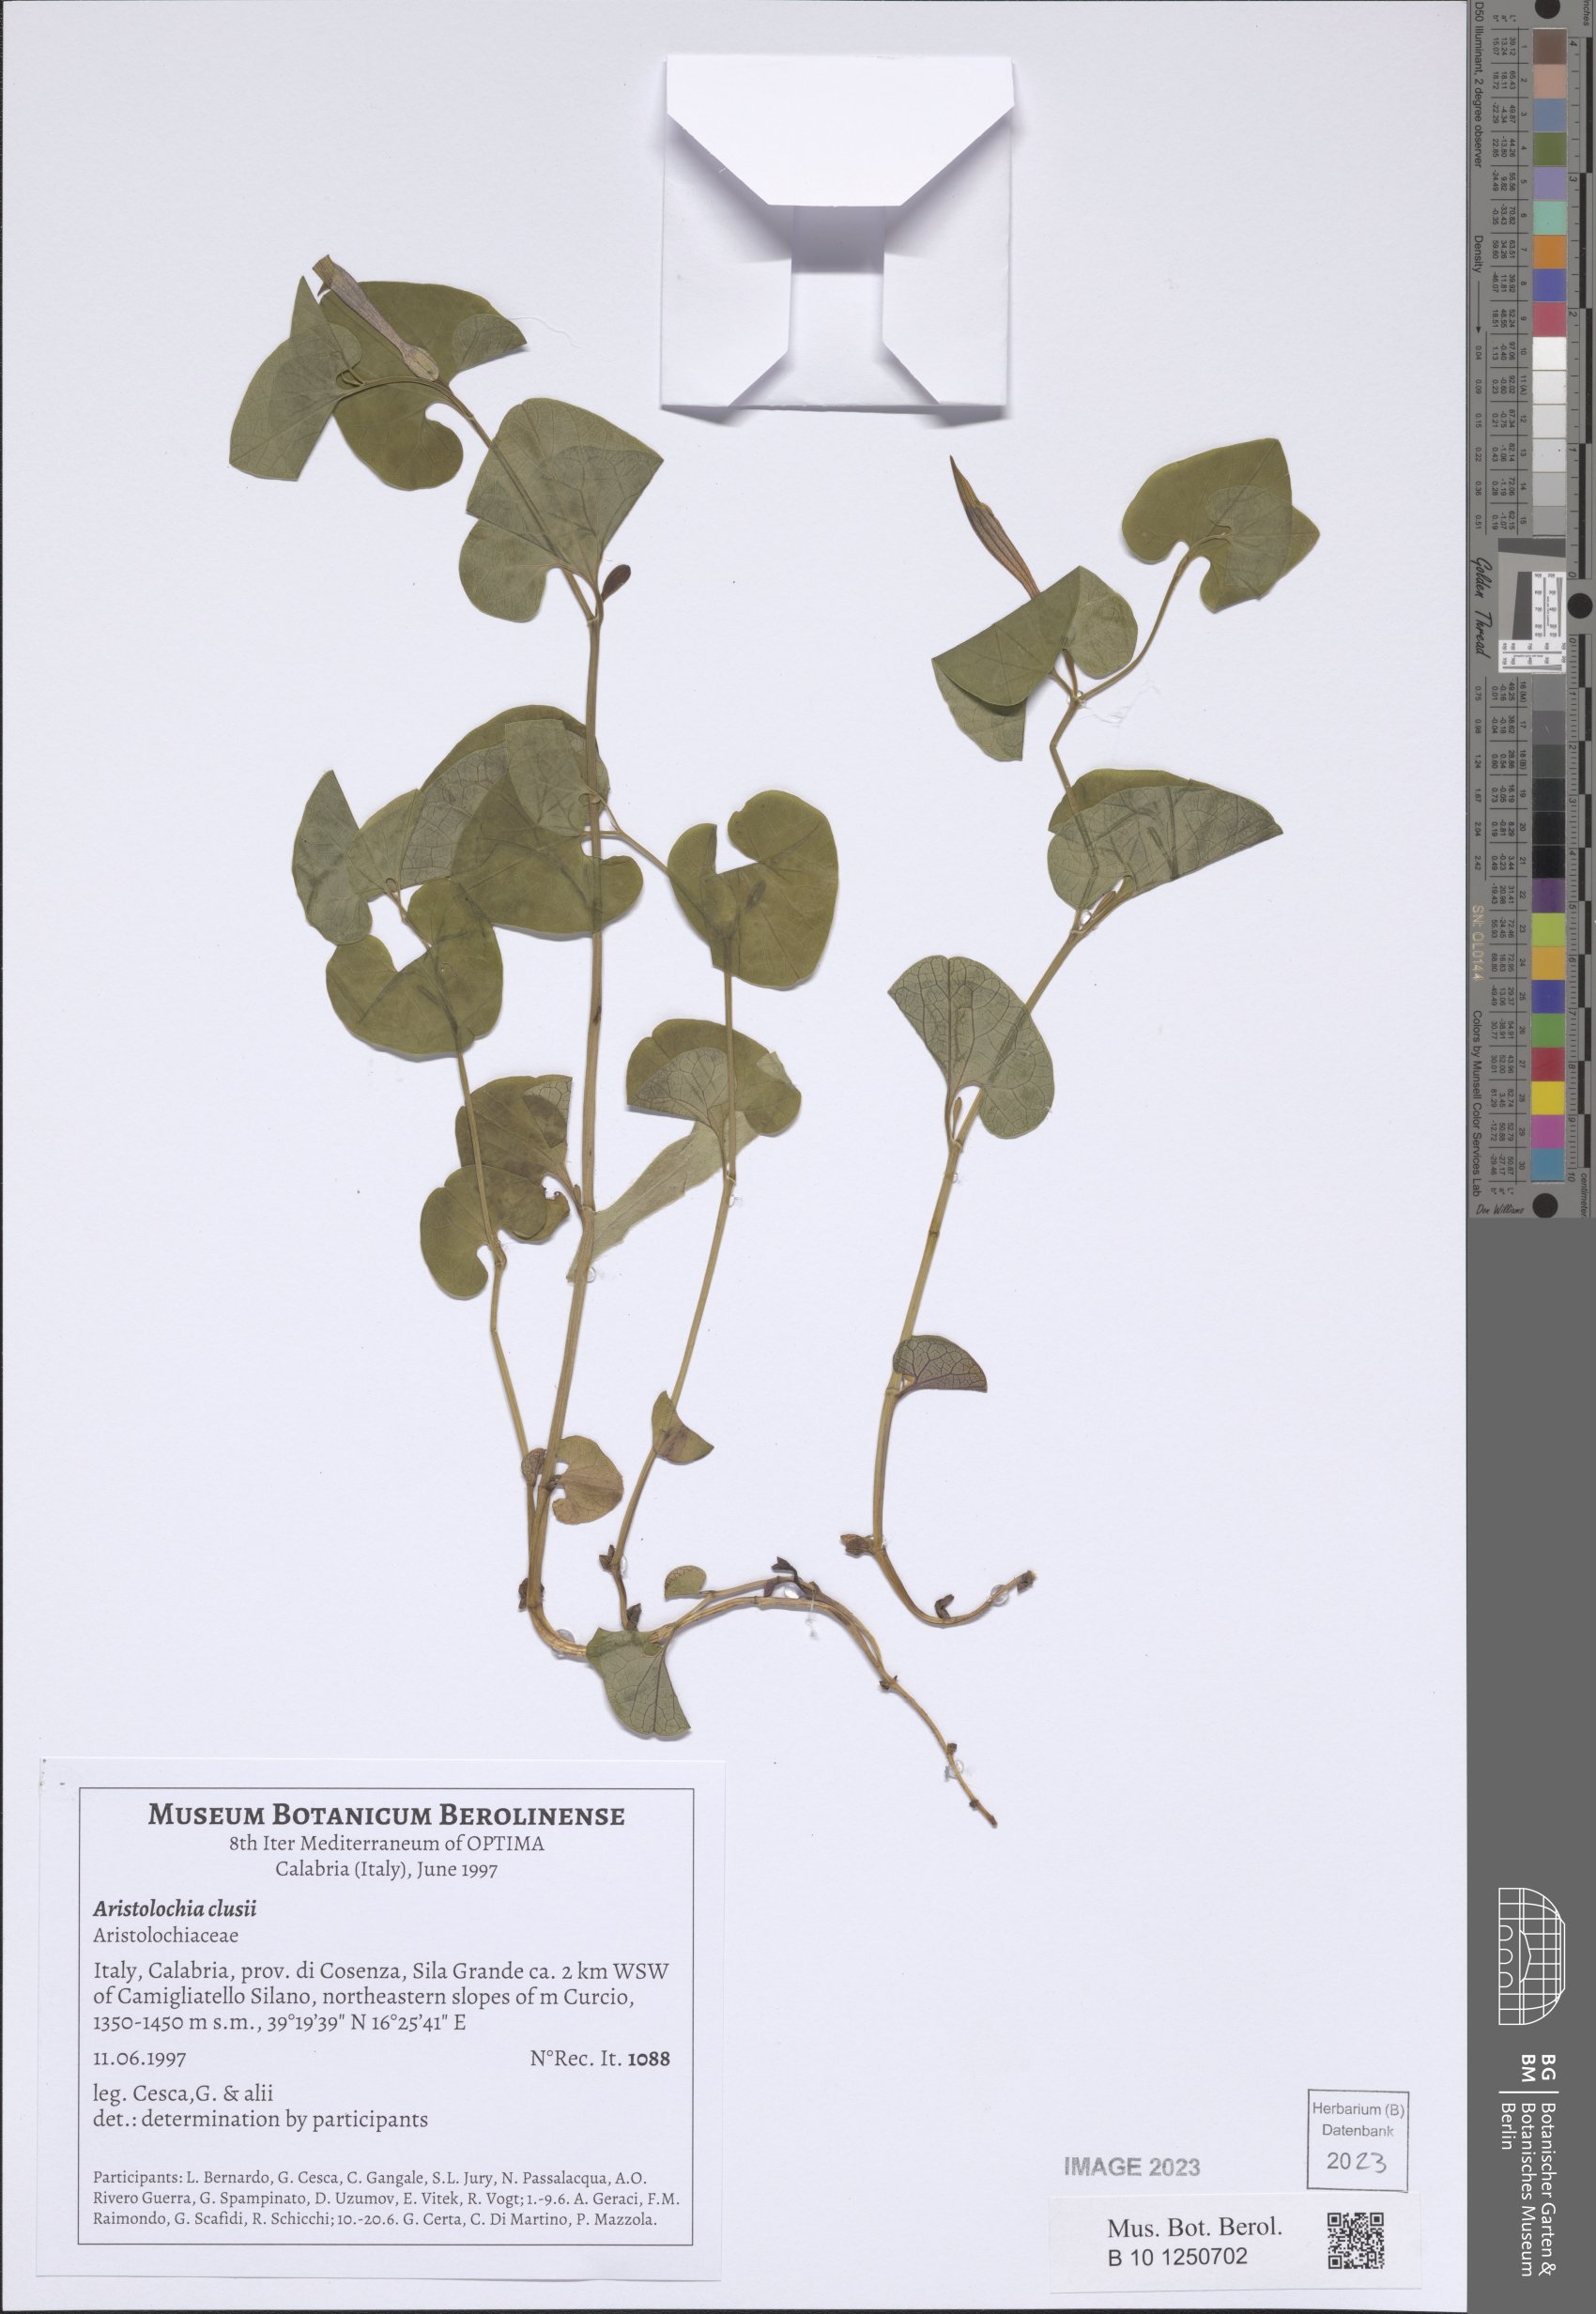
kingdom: Plantae
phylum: Tracheophyta
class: Magnoliopsida
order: Piperales
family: Aristolochiaceae
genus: Aristolochia
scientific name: Aristolochia clusii
